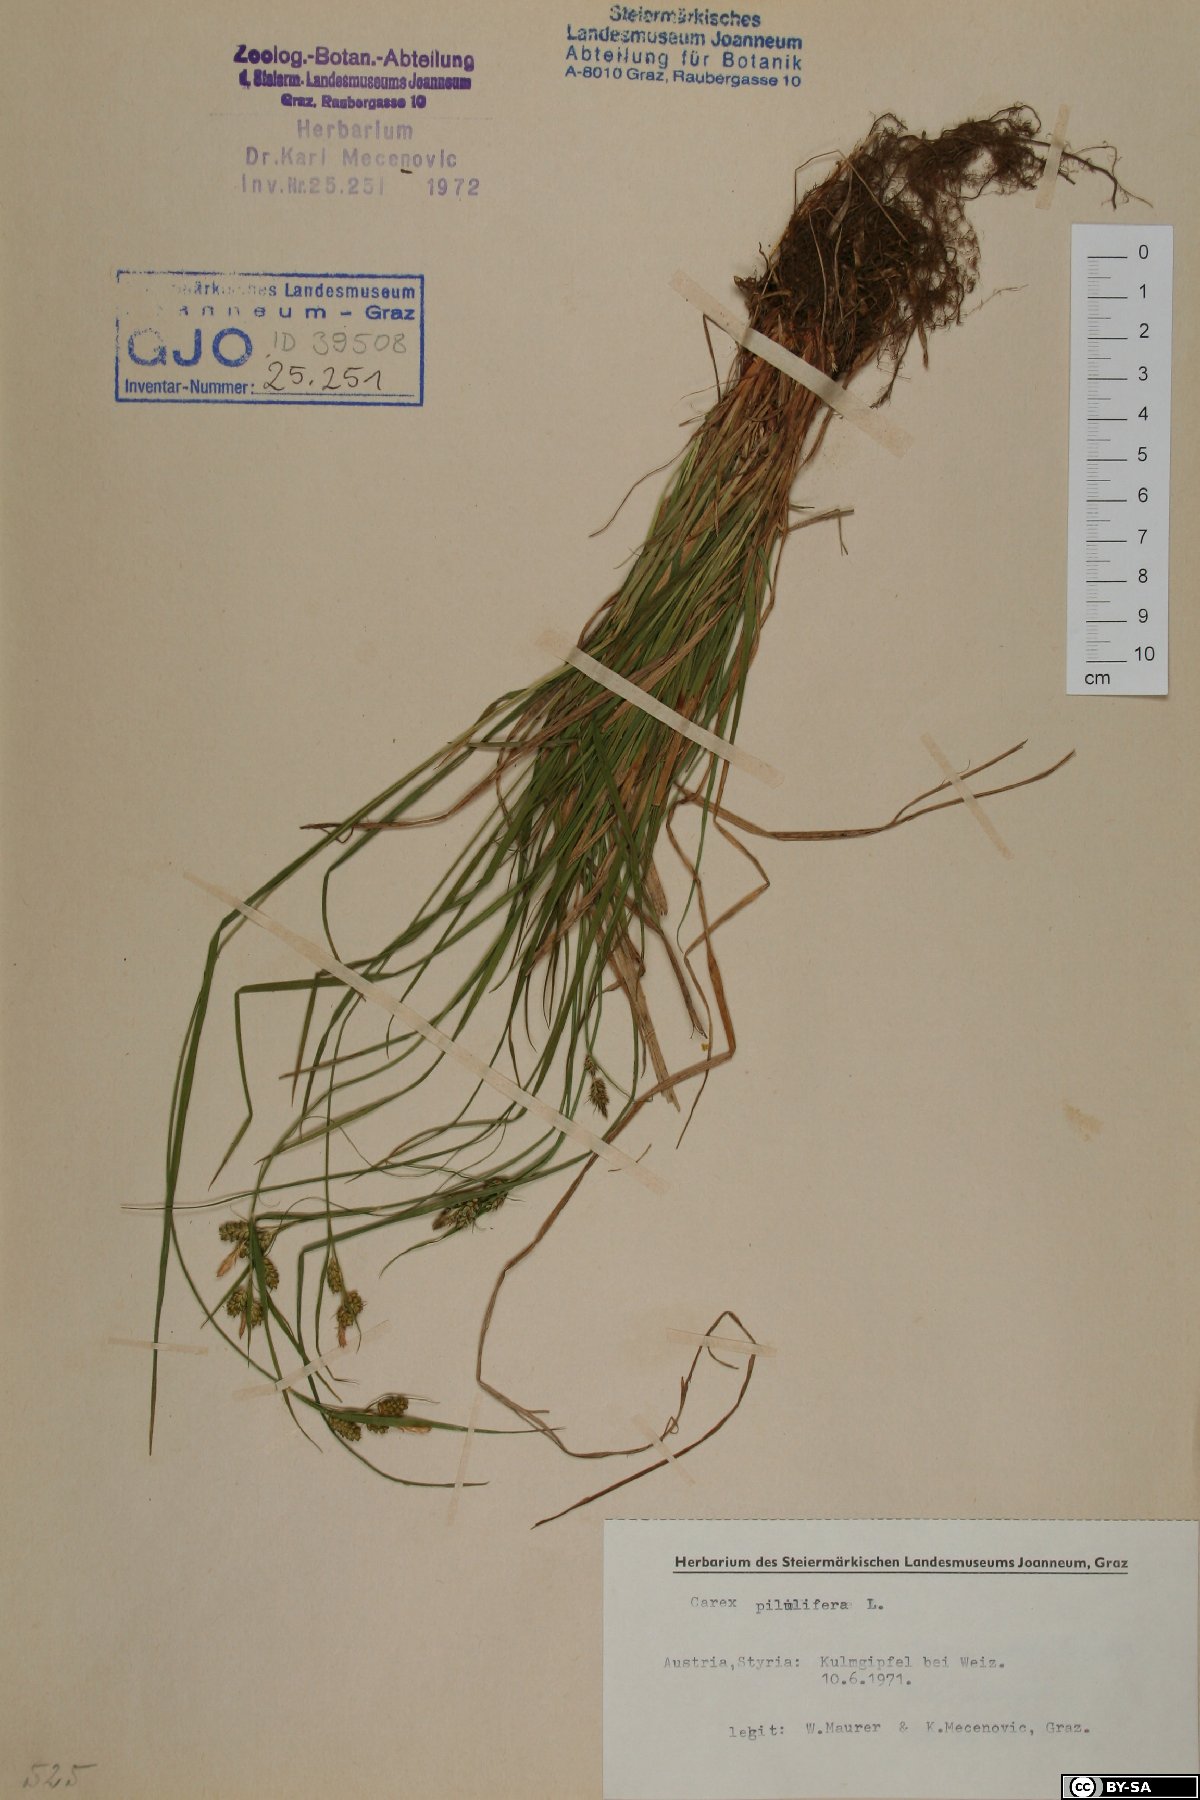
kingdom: Plantae
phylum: Tracheophyta
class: Liliopsida
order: Poales
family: Cyperaceae
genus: Carex
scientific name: Carex pilulifera
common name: Pill sedge
